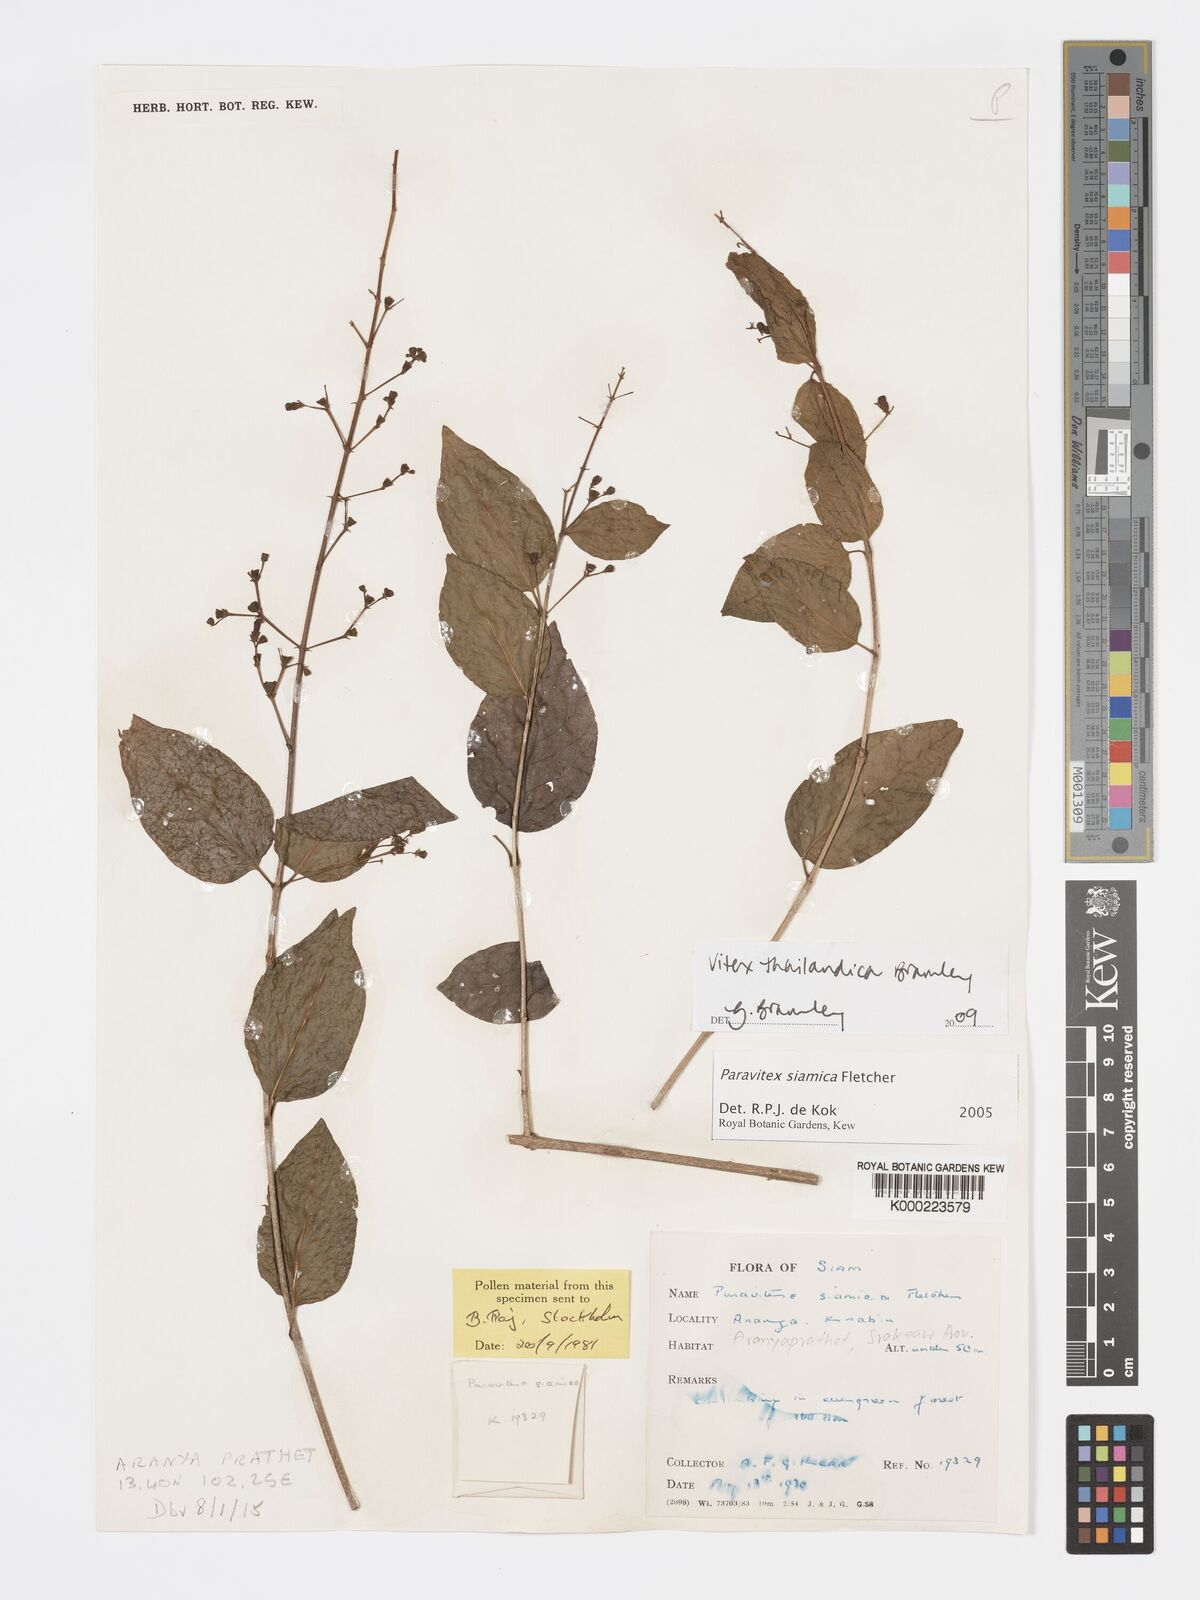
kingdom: Plantae
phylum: Tracheophyta
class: Magnoliopsida
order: Lamiales
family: Lamiaceae
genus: Vitex
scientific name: Vitex thailandica
